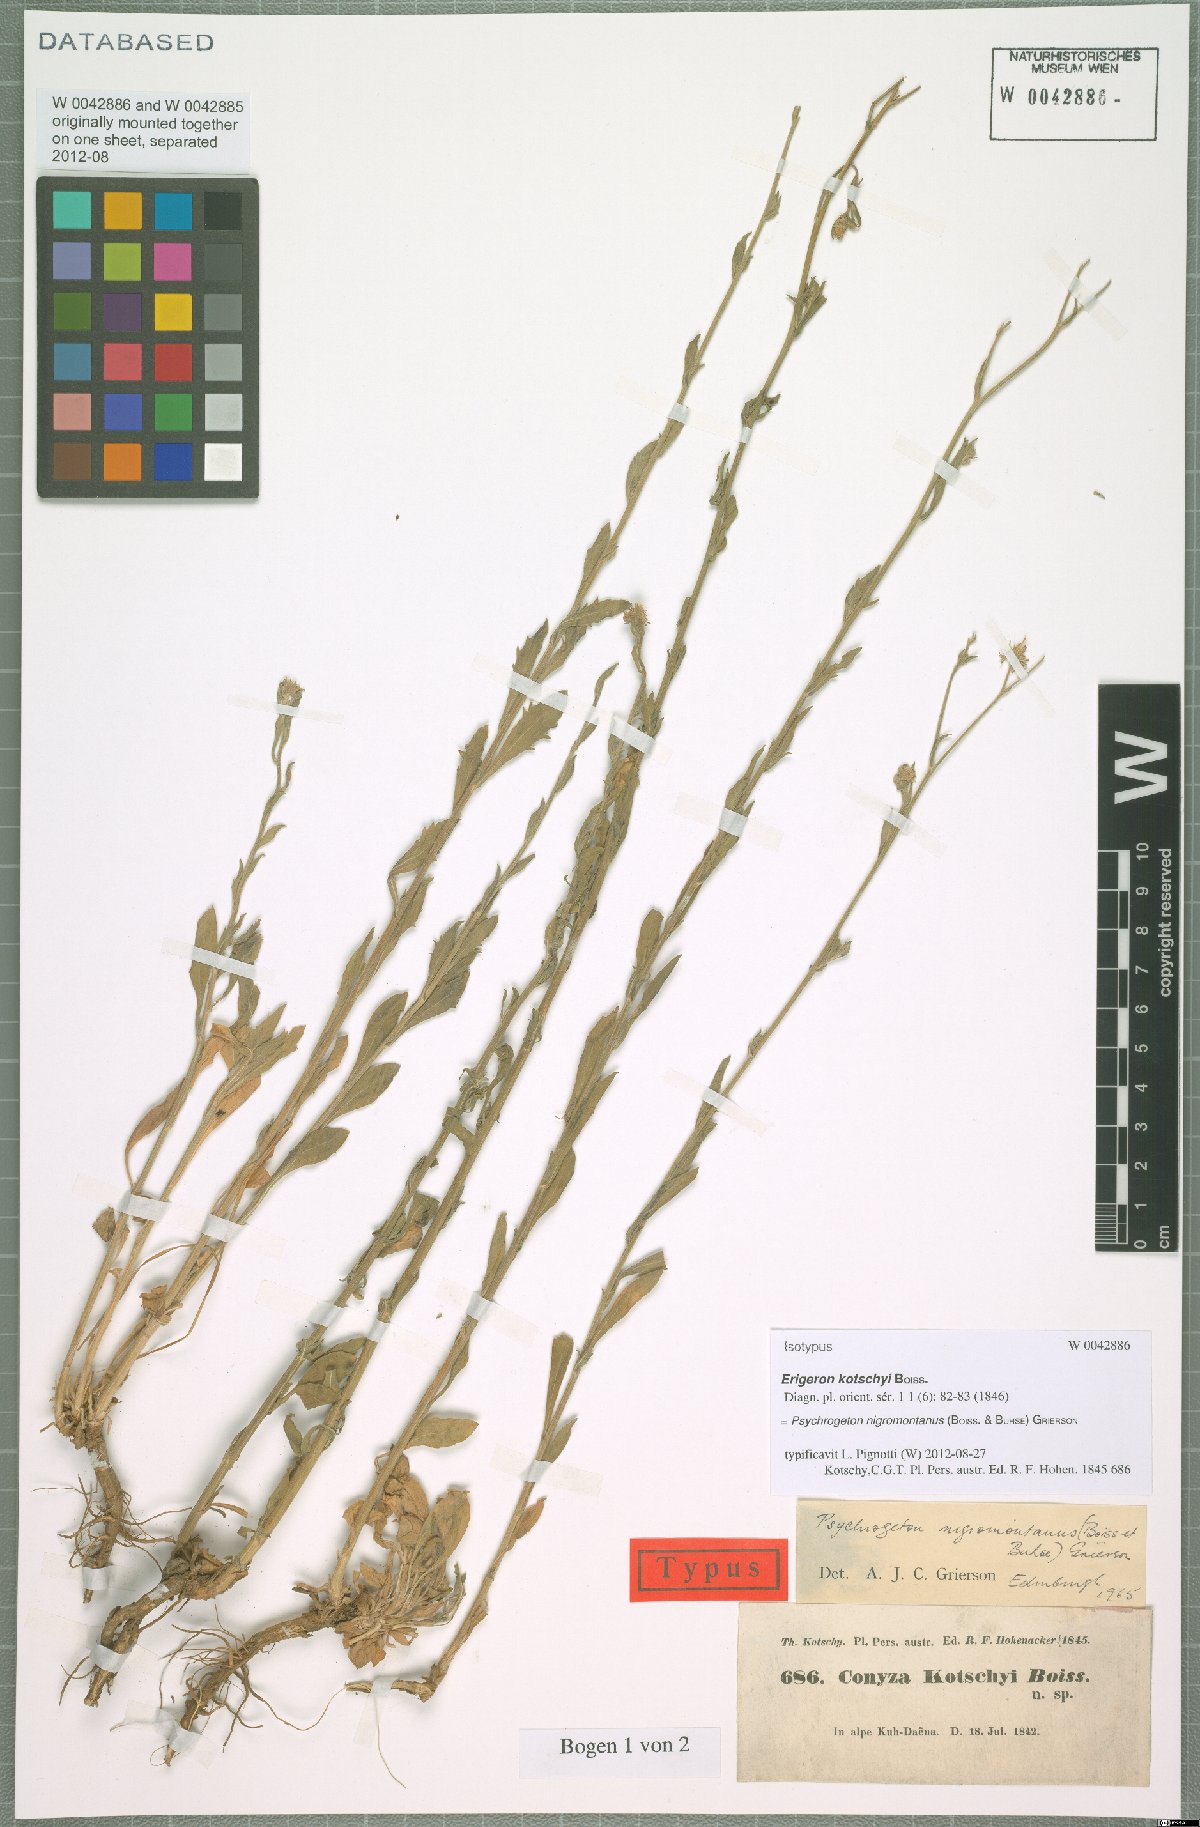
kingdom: Plantae
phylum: Tracheophyta
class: Magnoliopsida
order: Asterales
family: Asteraceae
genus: Psychrogeton
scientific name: Psychrogeton nigromontanus
